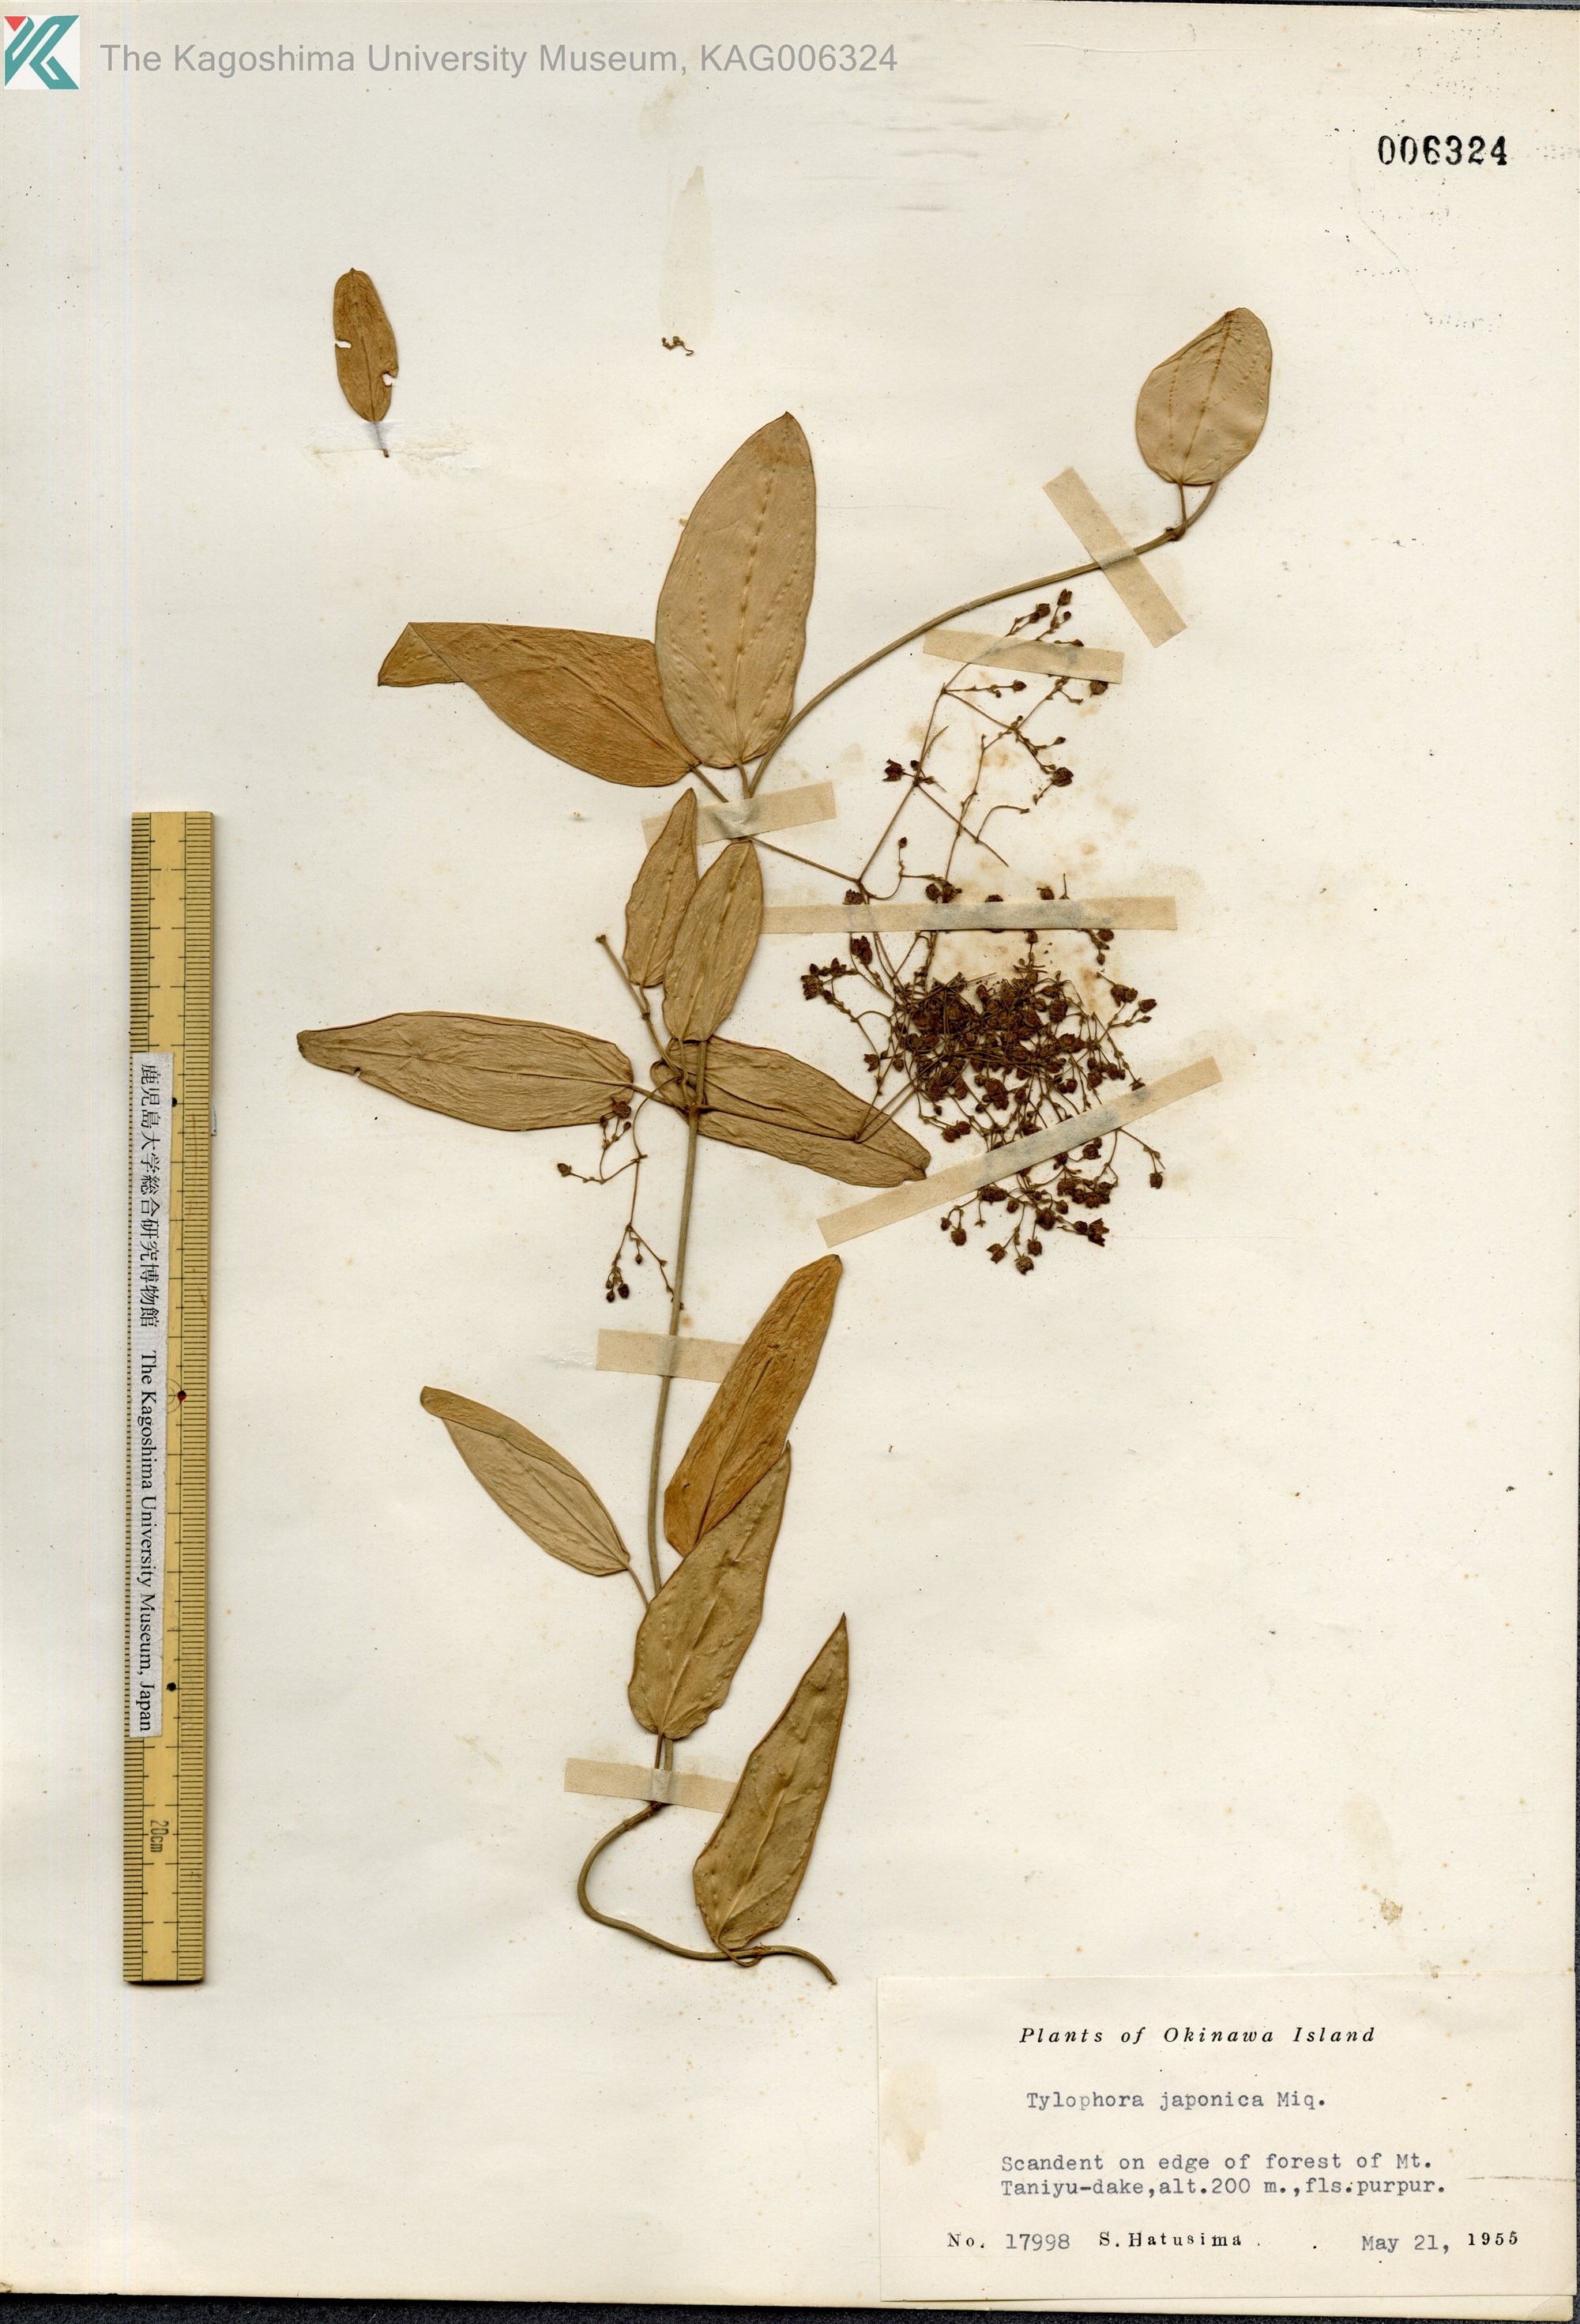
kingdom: Plantae
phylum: Tracheophyta
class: Magnoliopsida
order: Gentianales
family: Apocynaceae
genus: Vincetoxicum
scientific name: Vincetoxicum sieboldii
